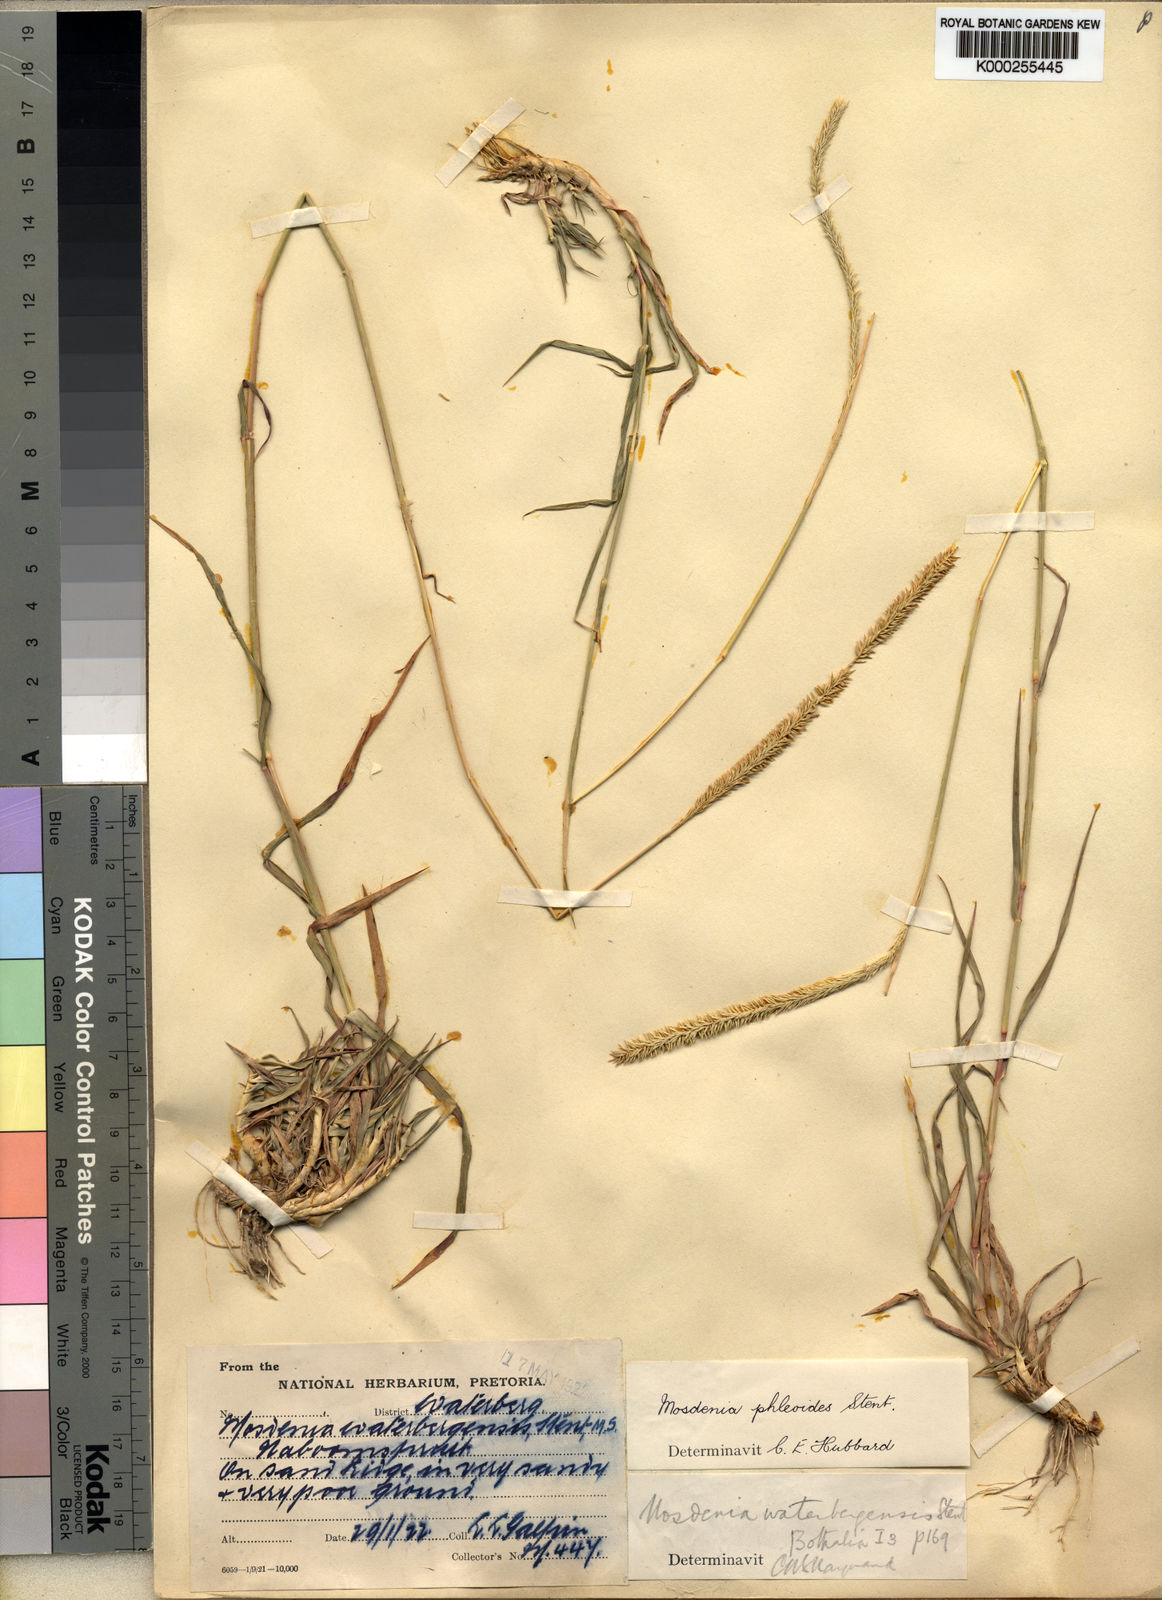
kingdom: Plantae
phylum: Tracheophyta
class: Liliopsida
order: Poales
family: Poaceae
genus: Mosdenia
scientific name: Mosdenia leptostachys
